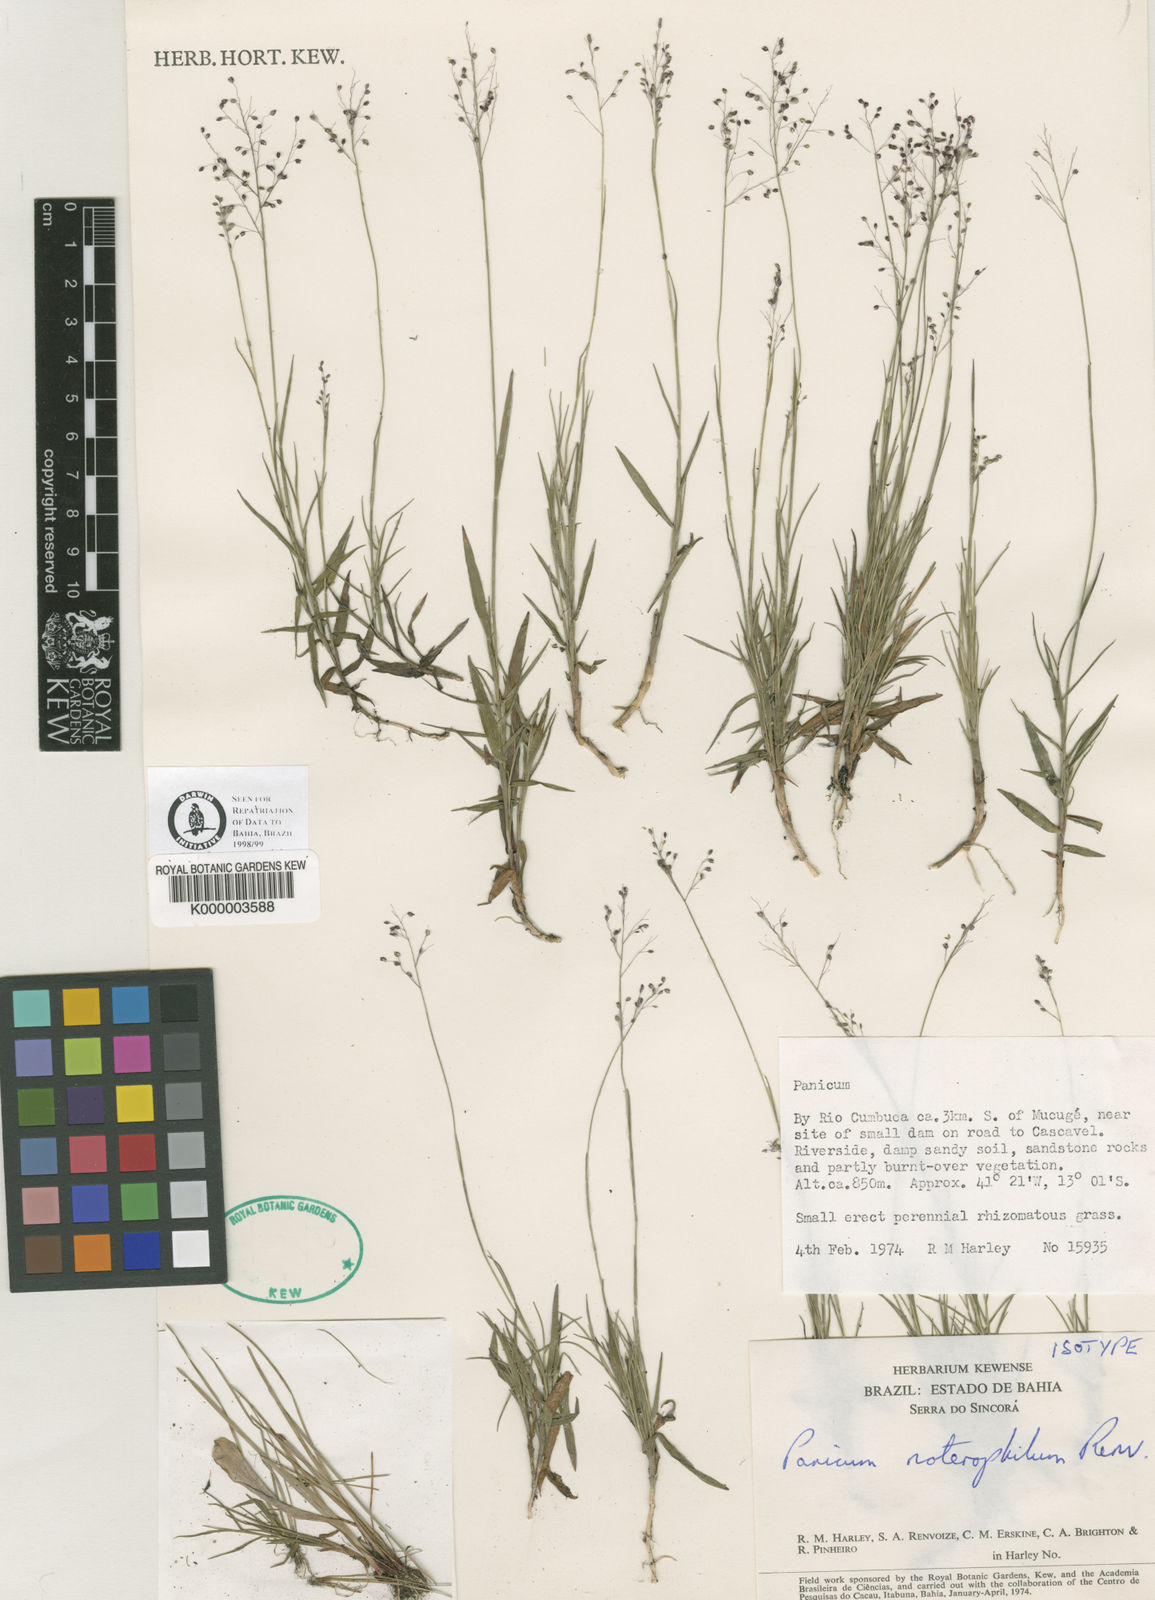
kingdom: Plantae
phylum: Tracheophyta
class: Liliopsida
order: Poales
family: Poaceae
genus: Trichanthecium
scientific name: Trichanthecium noterophilum
